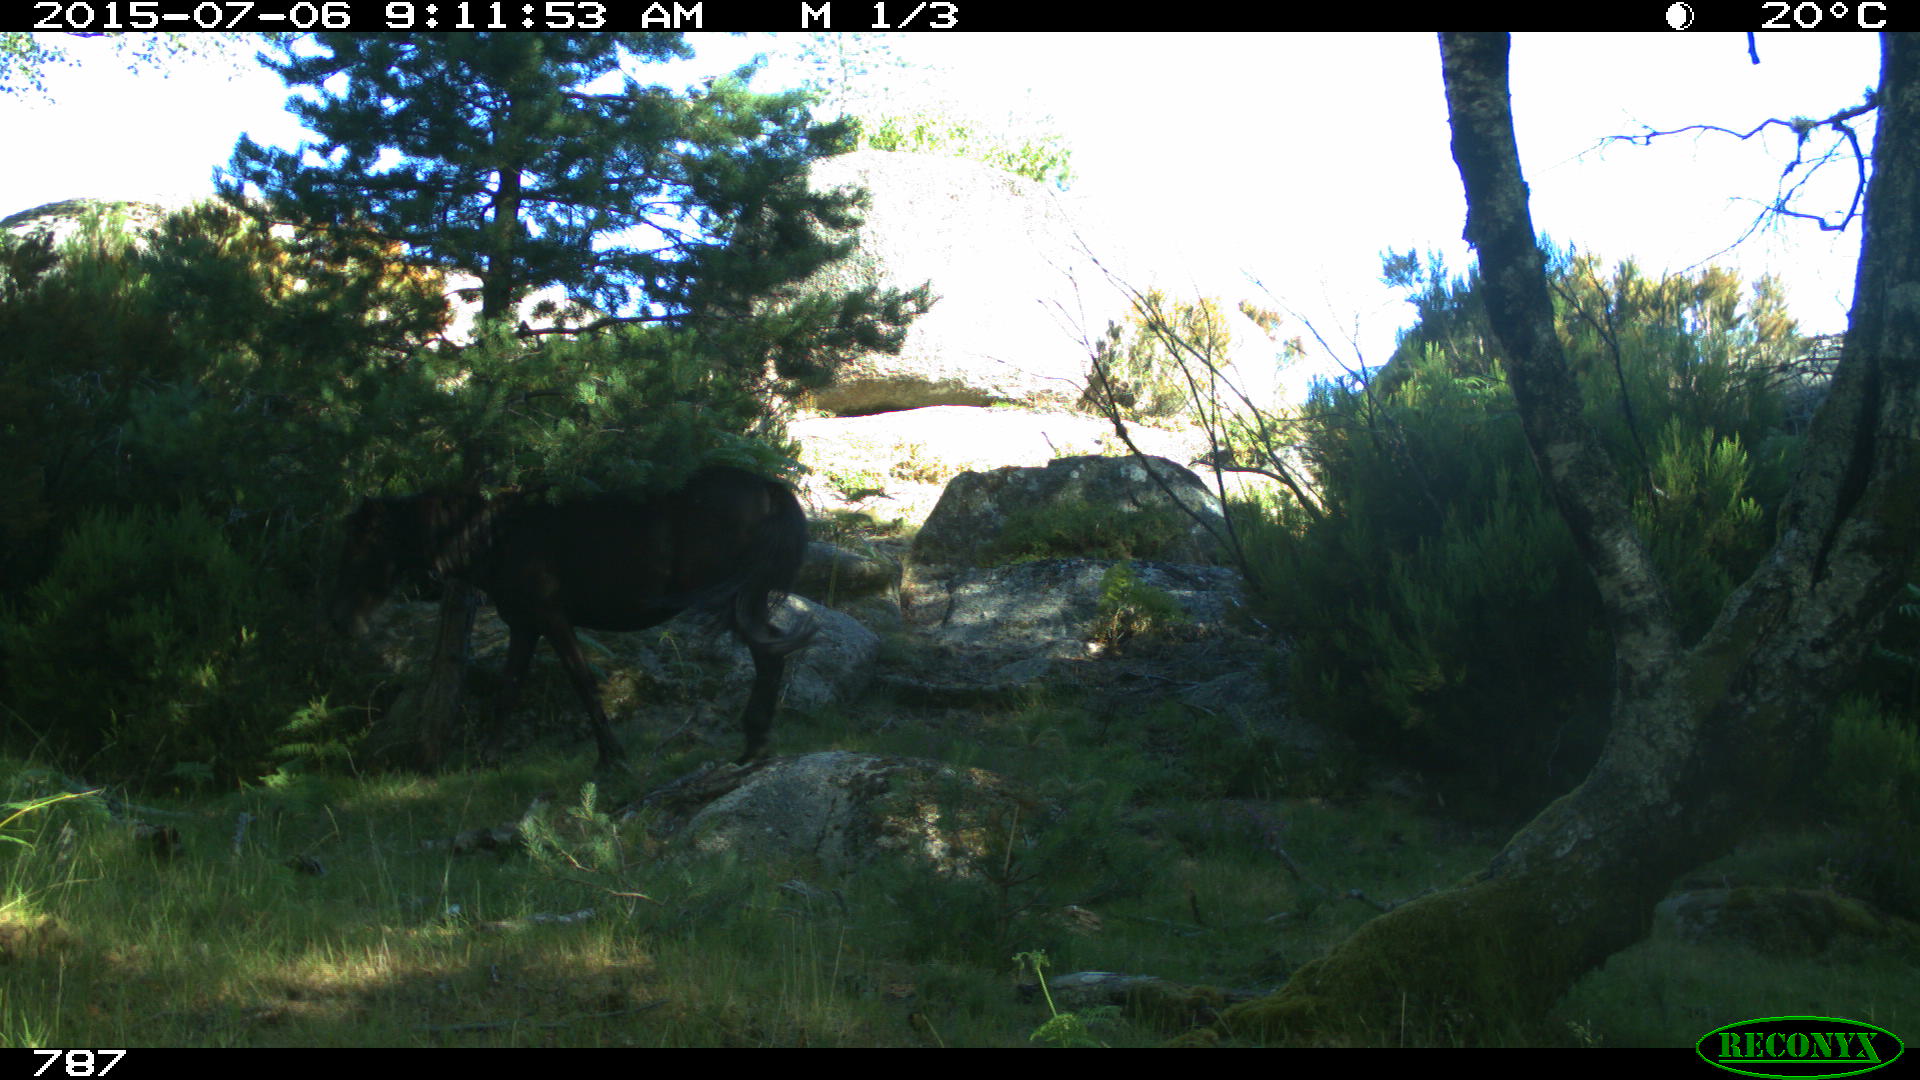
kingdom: Animalia
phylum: Chordata
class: Mammalia
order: Perissodactyla
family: Equidae
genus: Equus
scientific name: Equus caballus
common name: Horse
